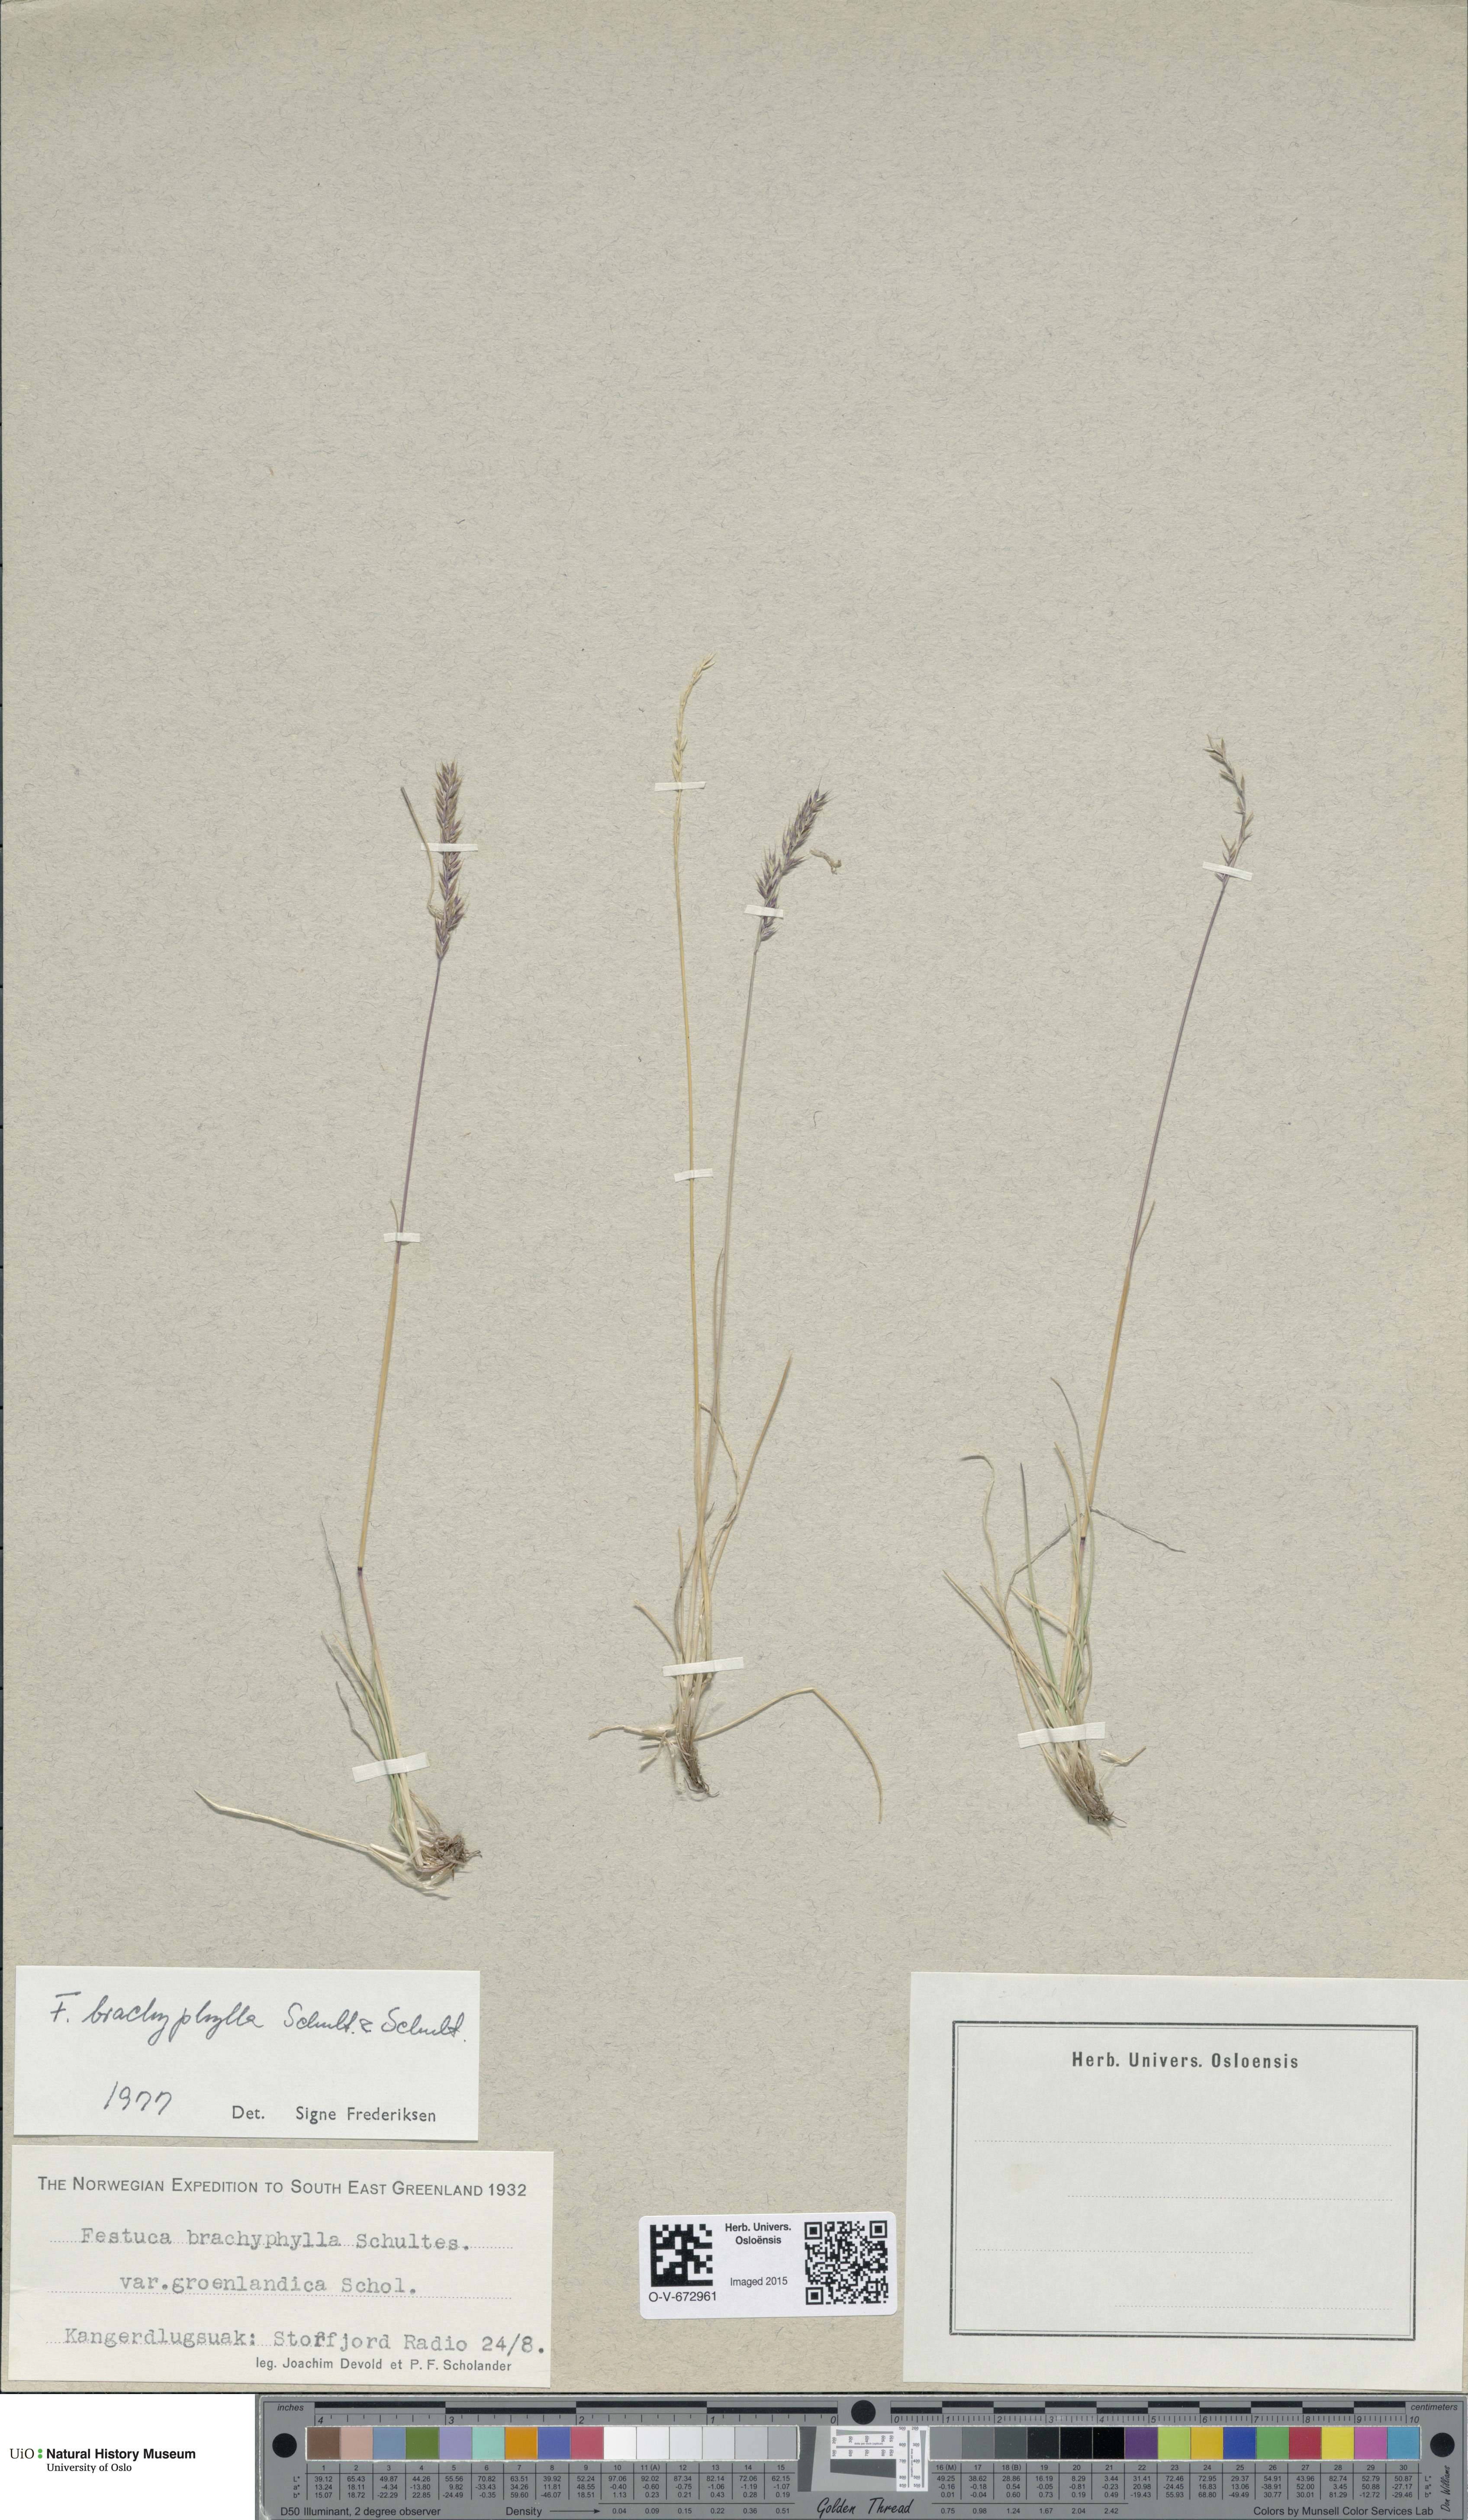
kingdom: Plantae
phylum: Tracheophyta
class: Liliopsida
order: Poales
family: Poaceae
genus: Festuca
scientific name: Festuca brachyphylla
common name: Alpine fescue
